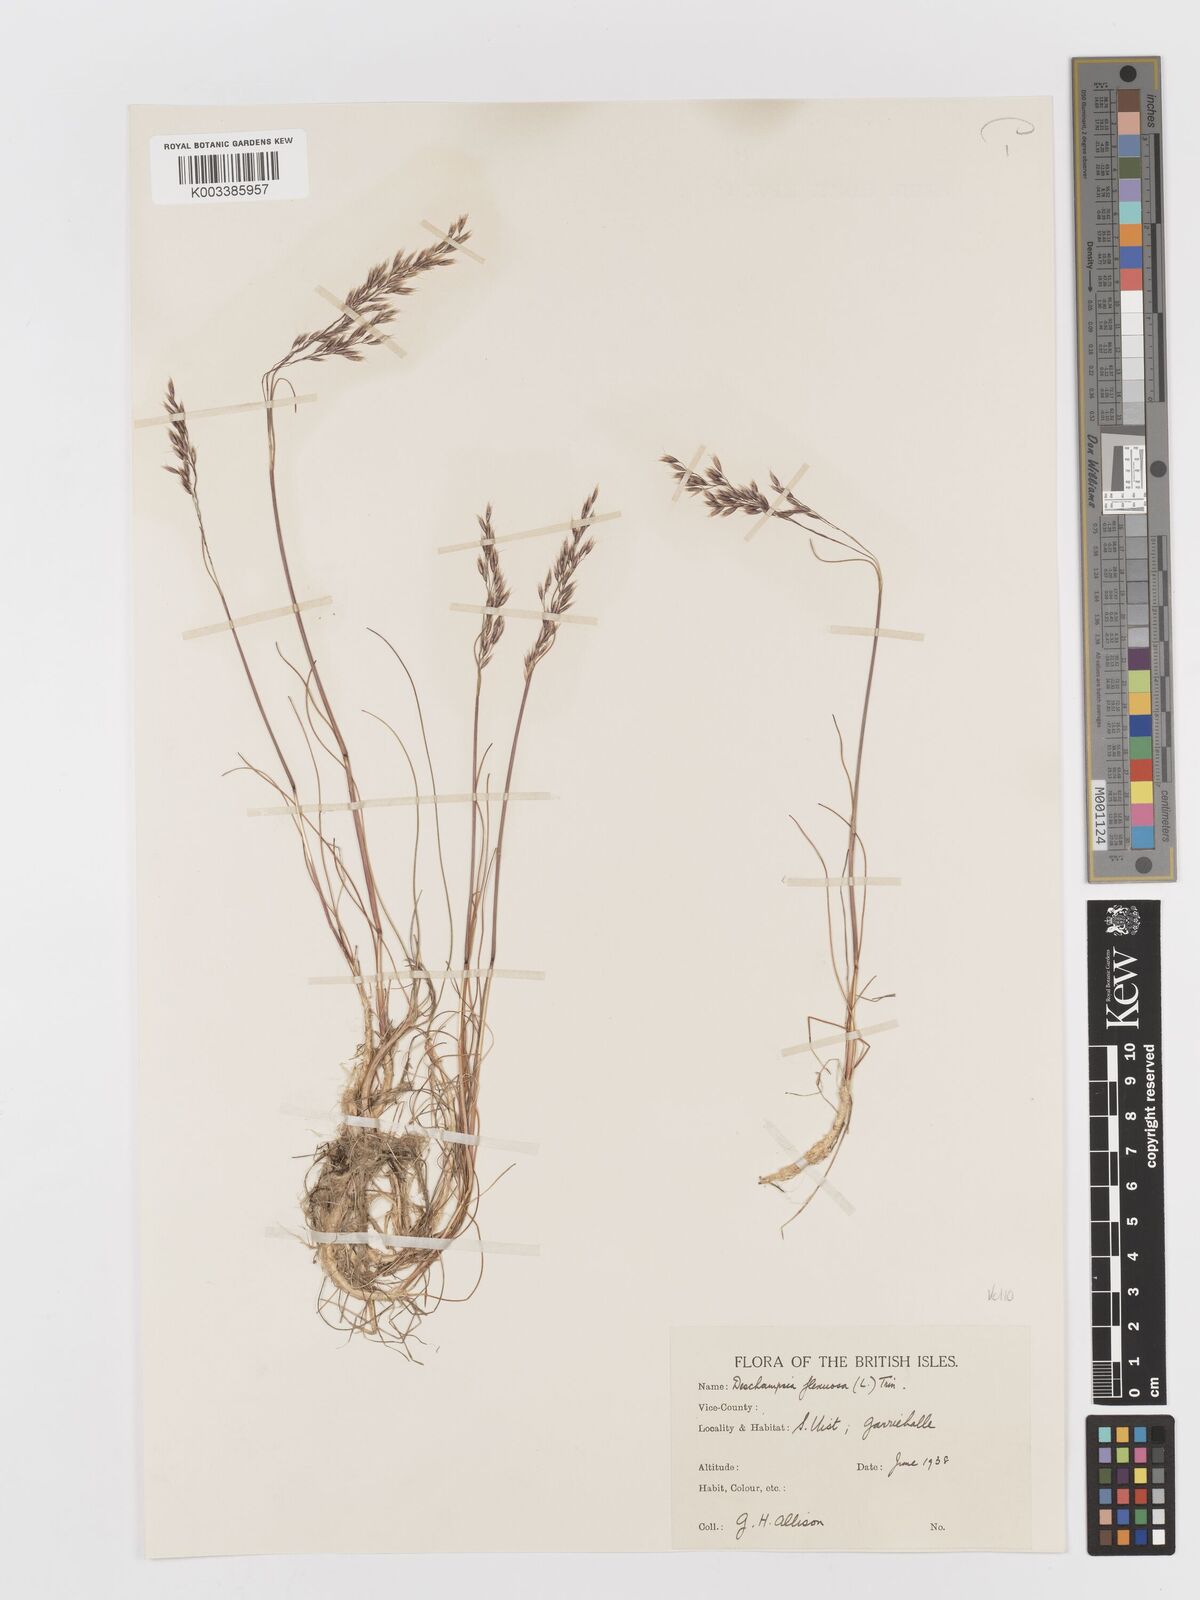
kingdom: Plantae
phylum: Tracheophyta
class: Liliopsida
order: Poales
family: Poaceae
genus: Avenella
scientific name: Avenella flexuosa
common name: Wavy hairgrass
